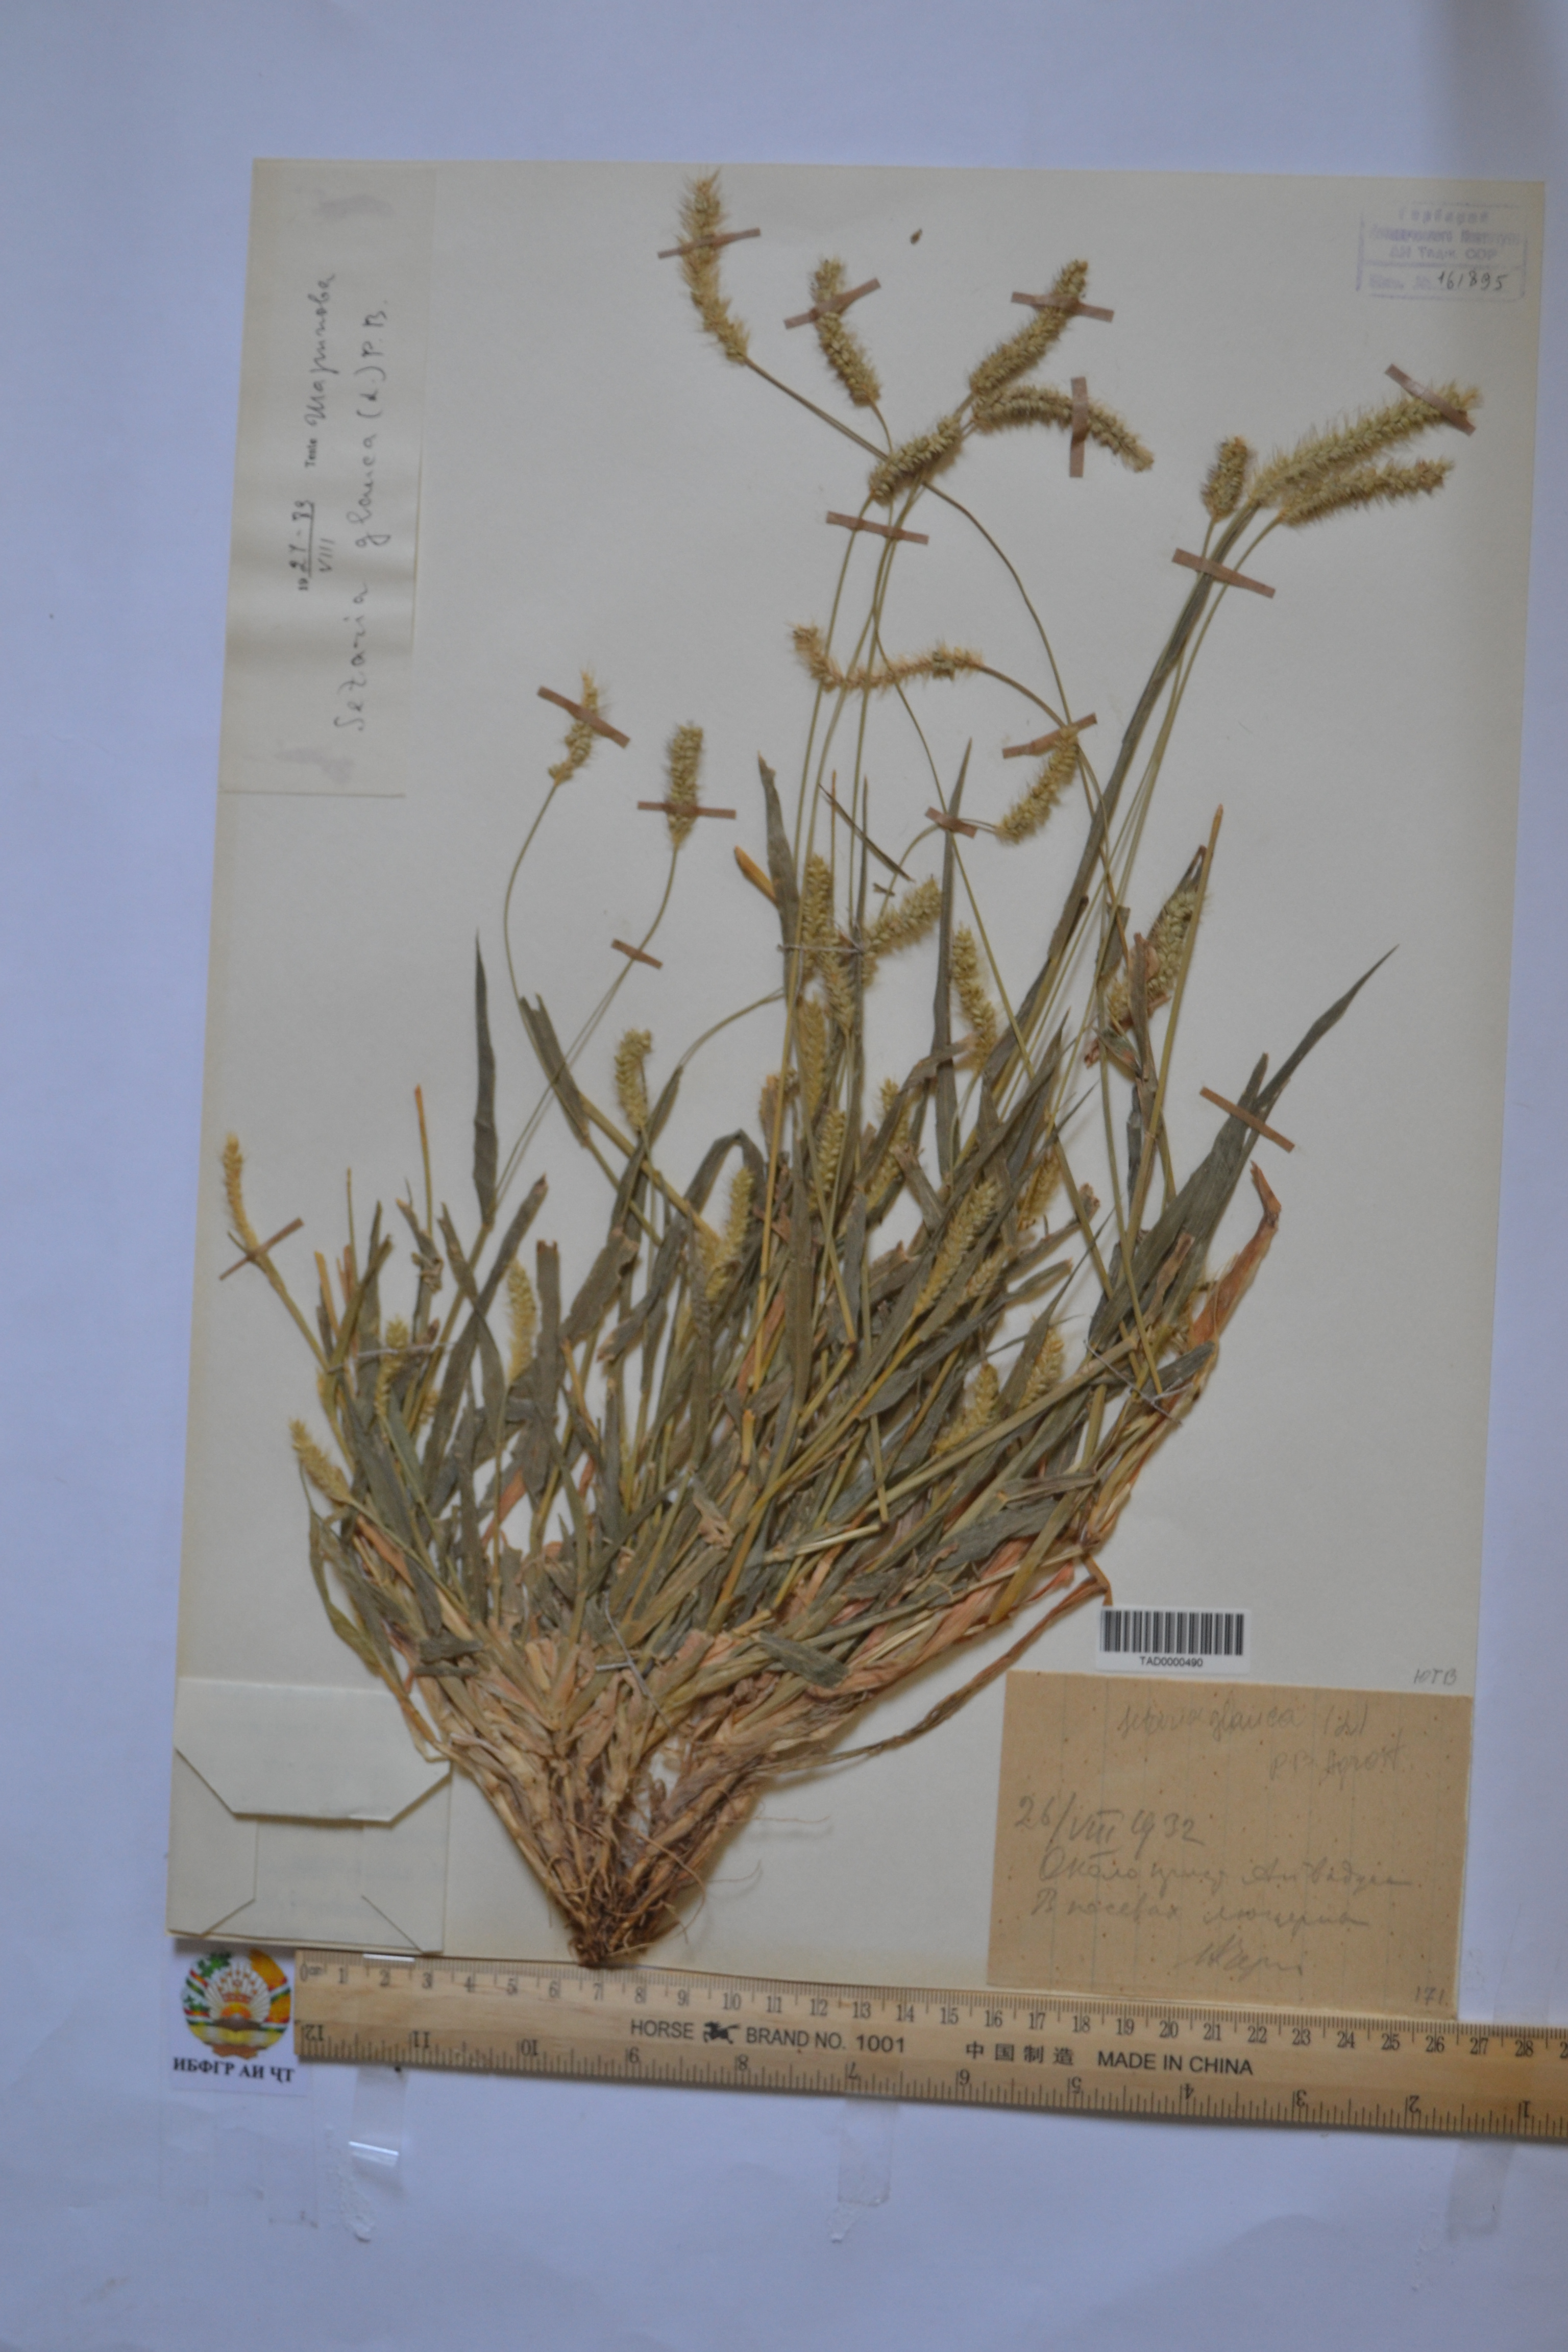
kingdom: Plantae
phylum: Tracheophyta
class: Liliopsida
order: Poales
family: Poaceae
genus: Cenchrus
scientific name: Cenchrus americanus
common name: Pearl millet
